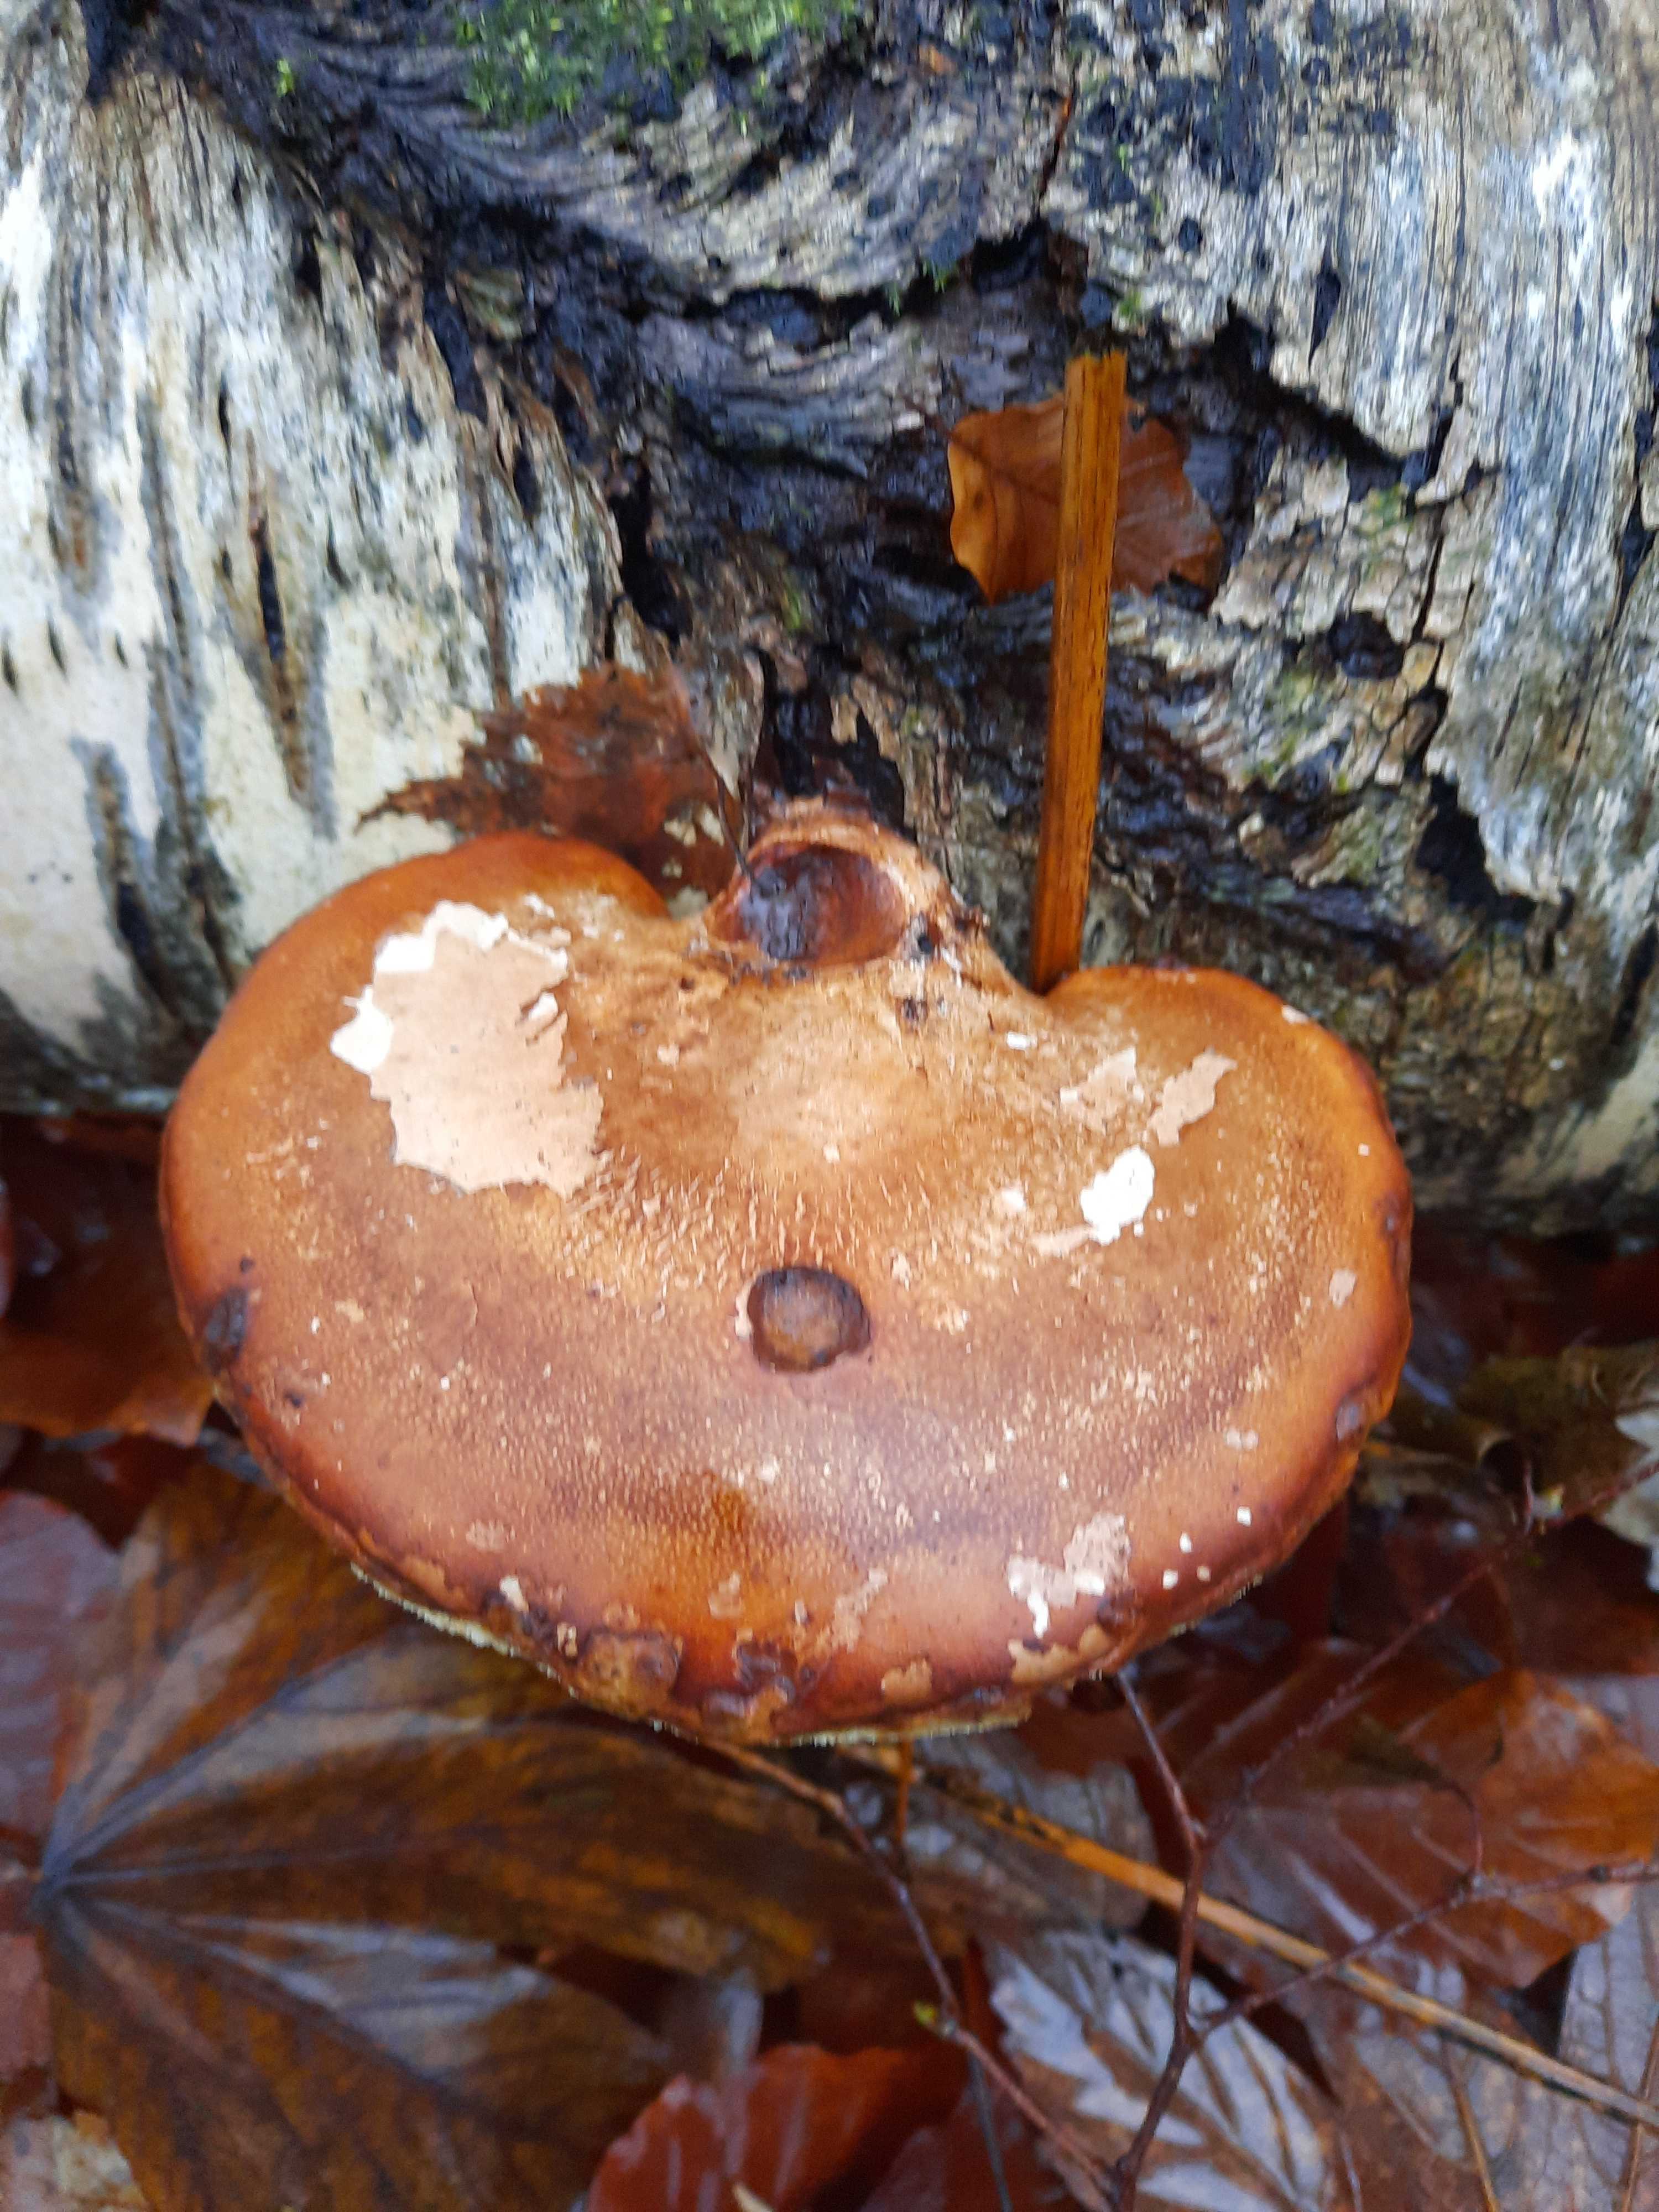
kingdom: Fungi
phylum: Basidiomycota
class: Agaricomycetes
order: Polyporales
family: Fomitopsidaceae
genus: Fomitopsis
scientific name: Fomitopsis betulina
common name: birkeporesvamp
